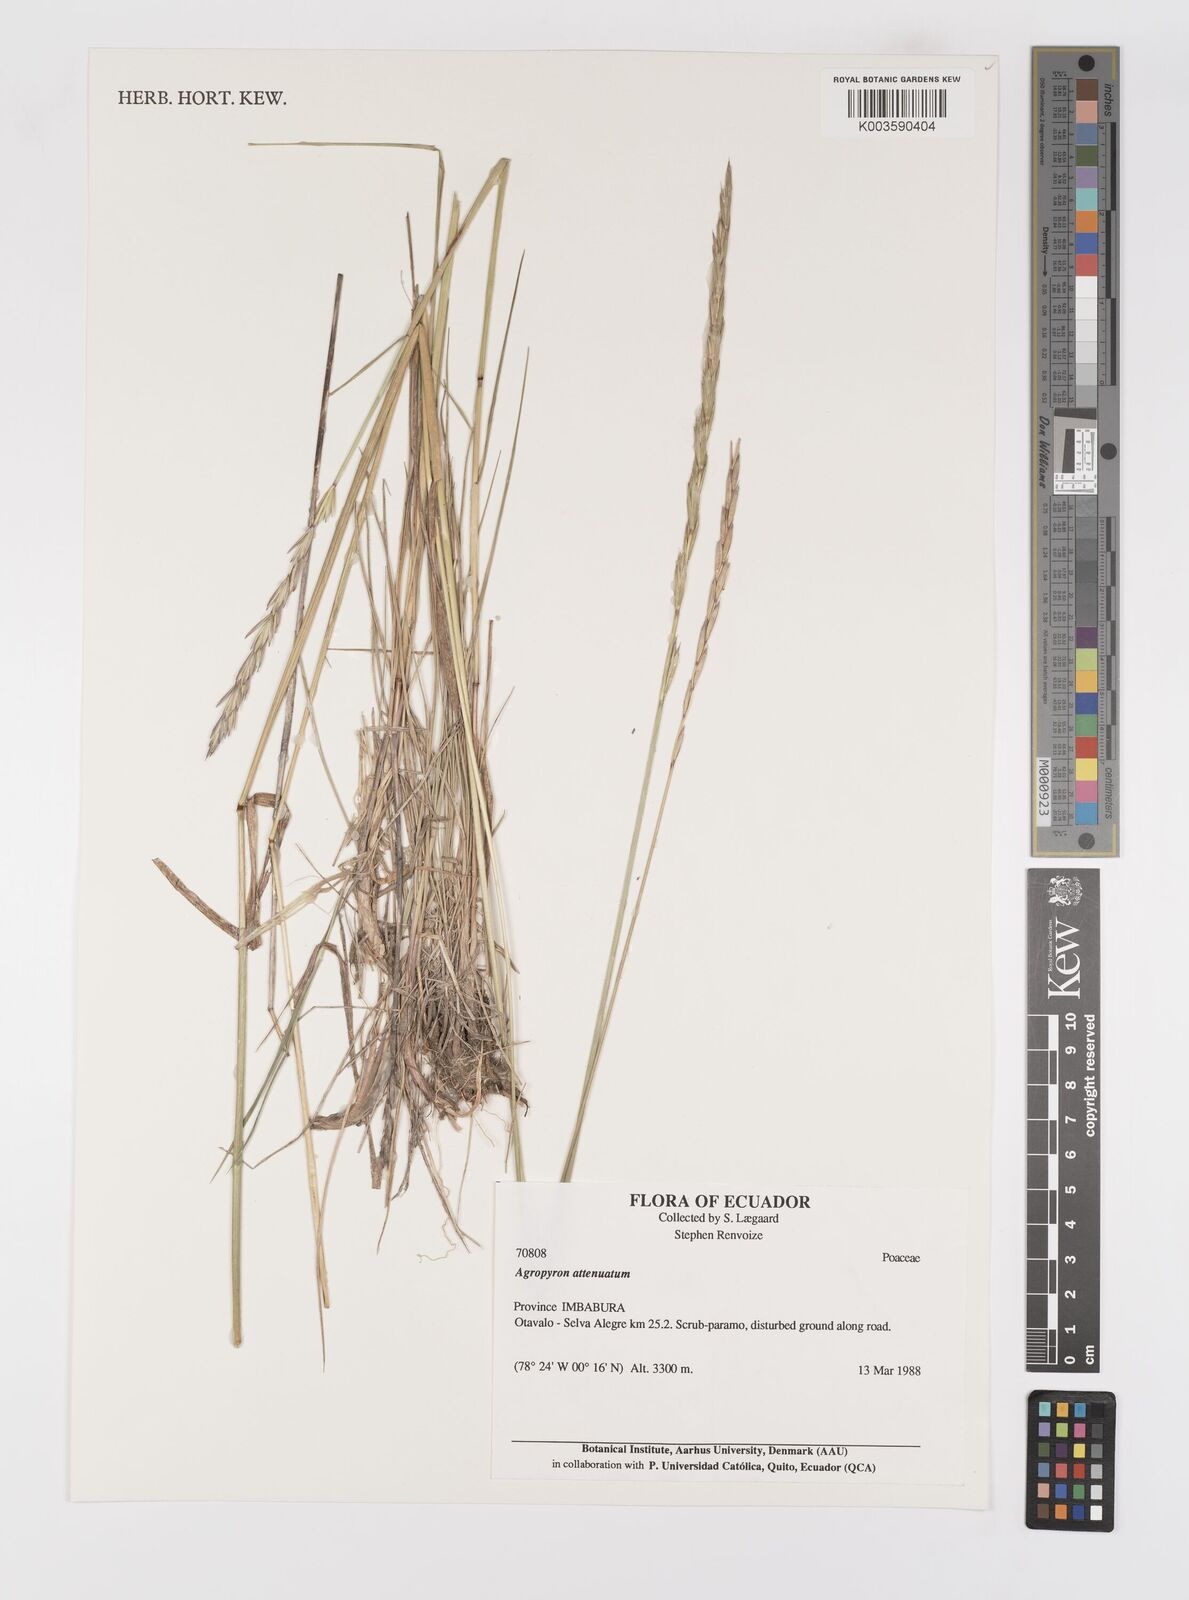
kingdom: Plantae
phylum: Tracheophyta
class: Liliopsida
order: Poales
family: Poaceae
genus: Elymus
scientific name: Elymus cordilleranus
